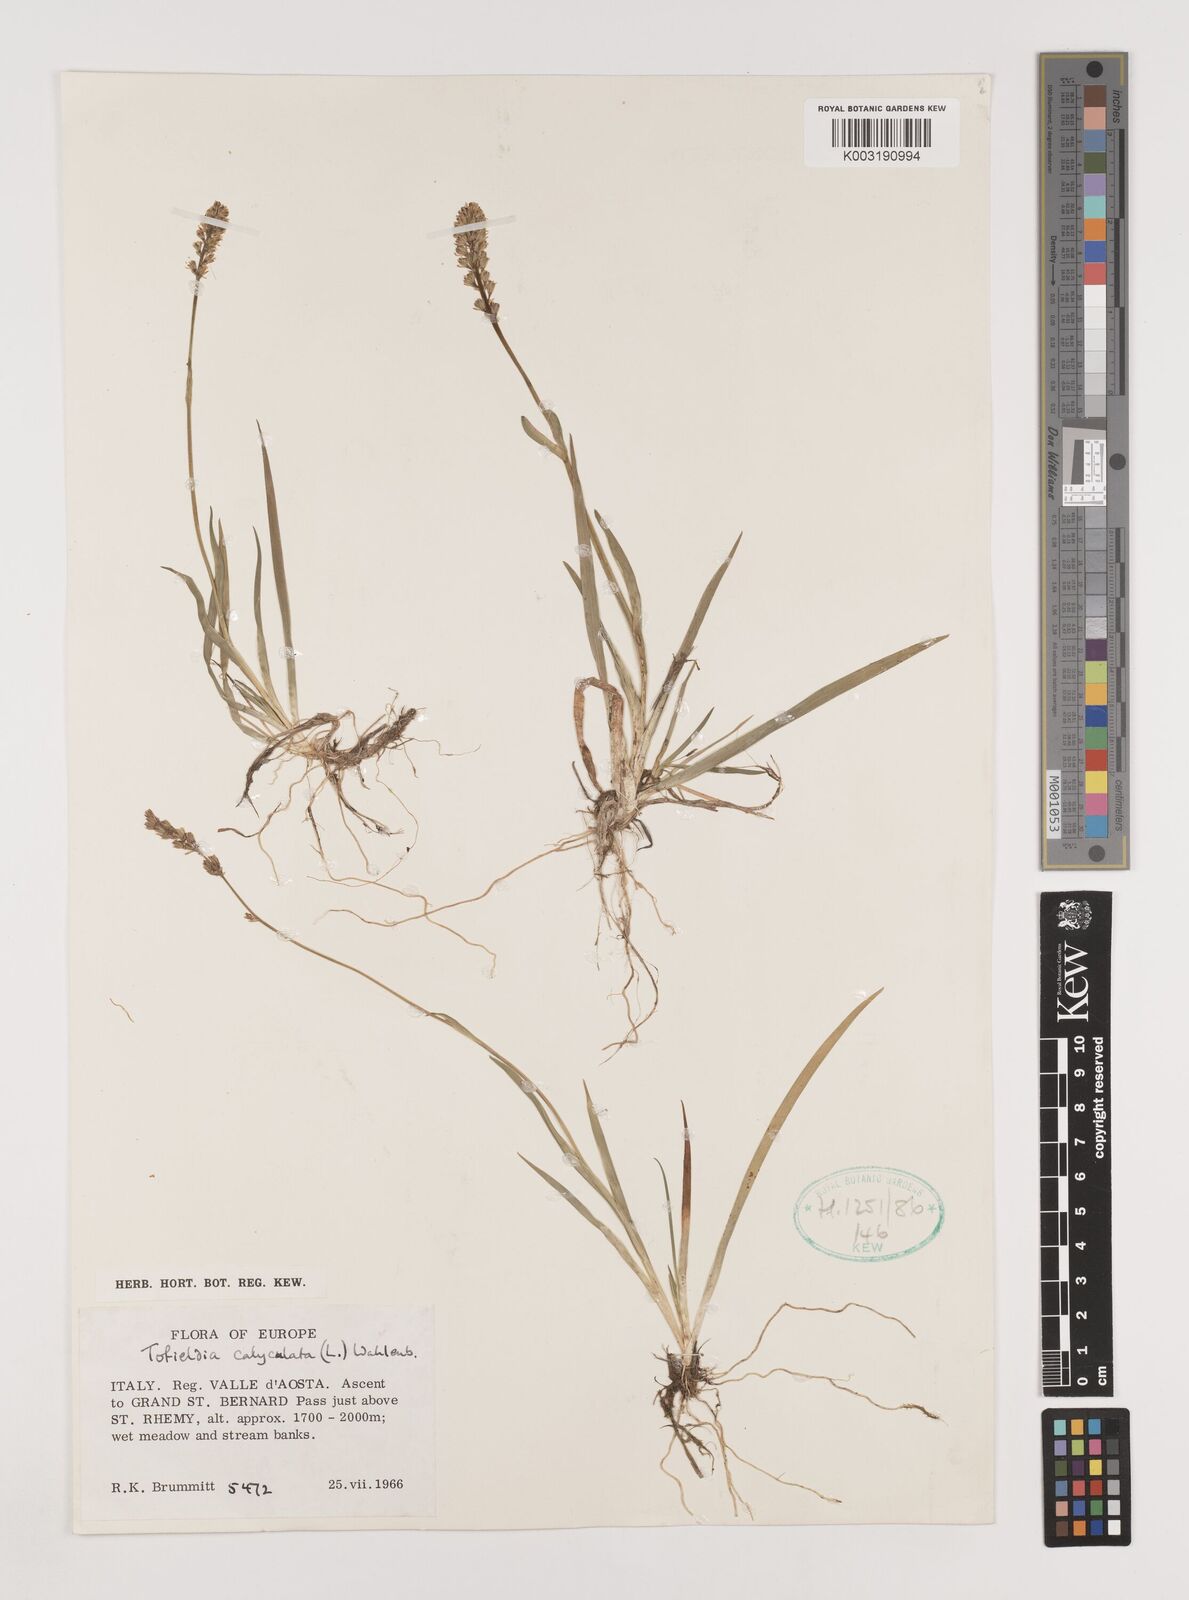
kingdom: Plantae
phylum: Tracheophyta
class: Liliopsida
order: Alismatales
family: Tofieldiaceae
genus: Tofieldia
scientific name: Tofieldia calyculata
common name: German-asphodel
